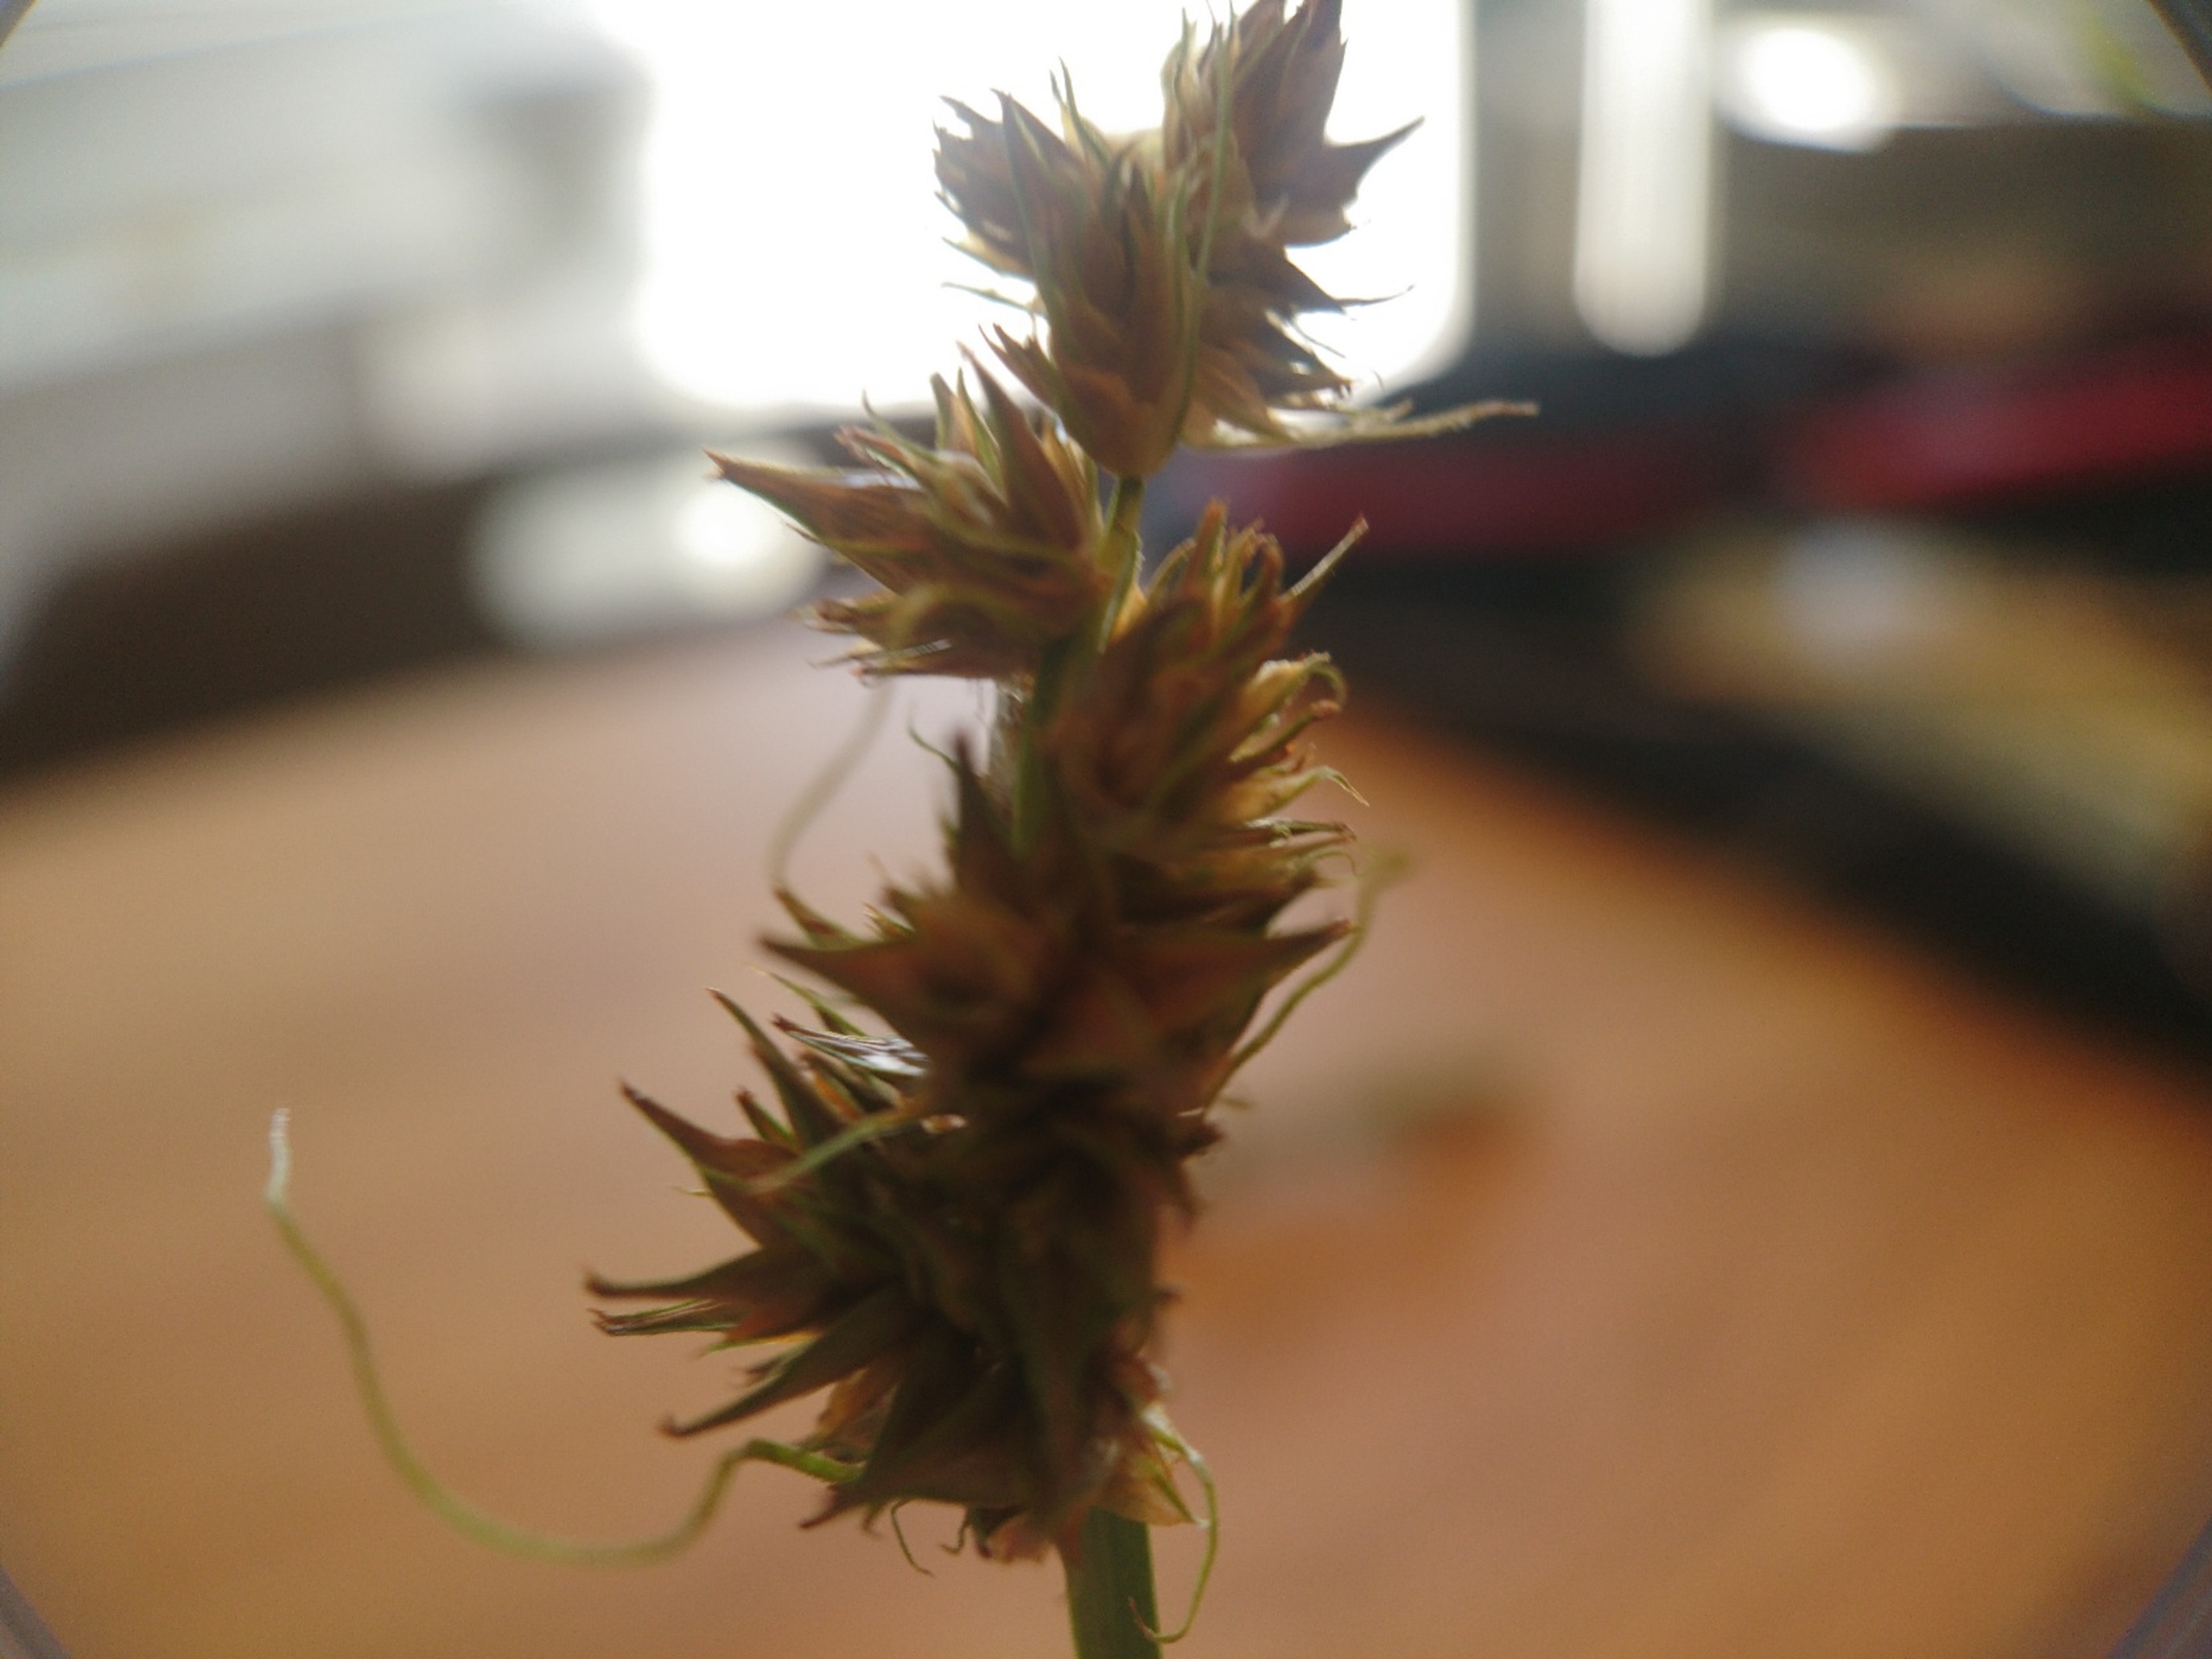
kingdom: Plantae
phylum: Tracheophyta
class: Liliopsida
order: Poales
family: Cyperaceae
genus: Carex
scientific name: Carex otrubae
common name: Sylt-star
